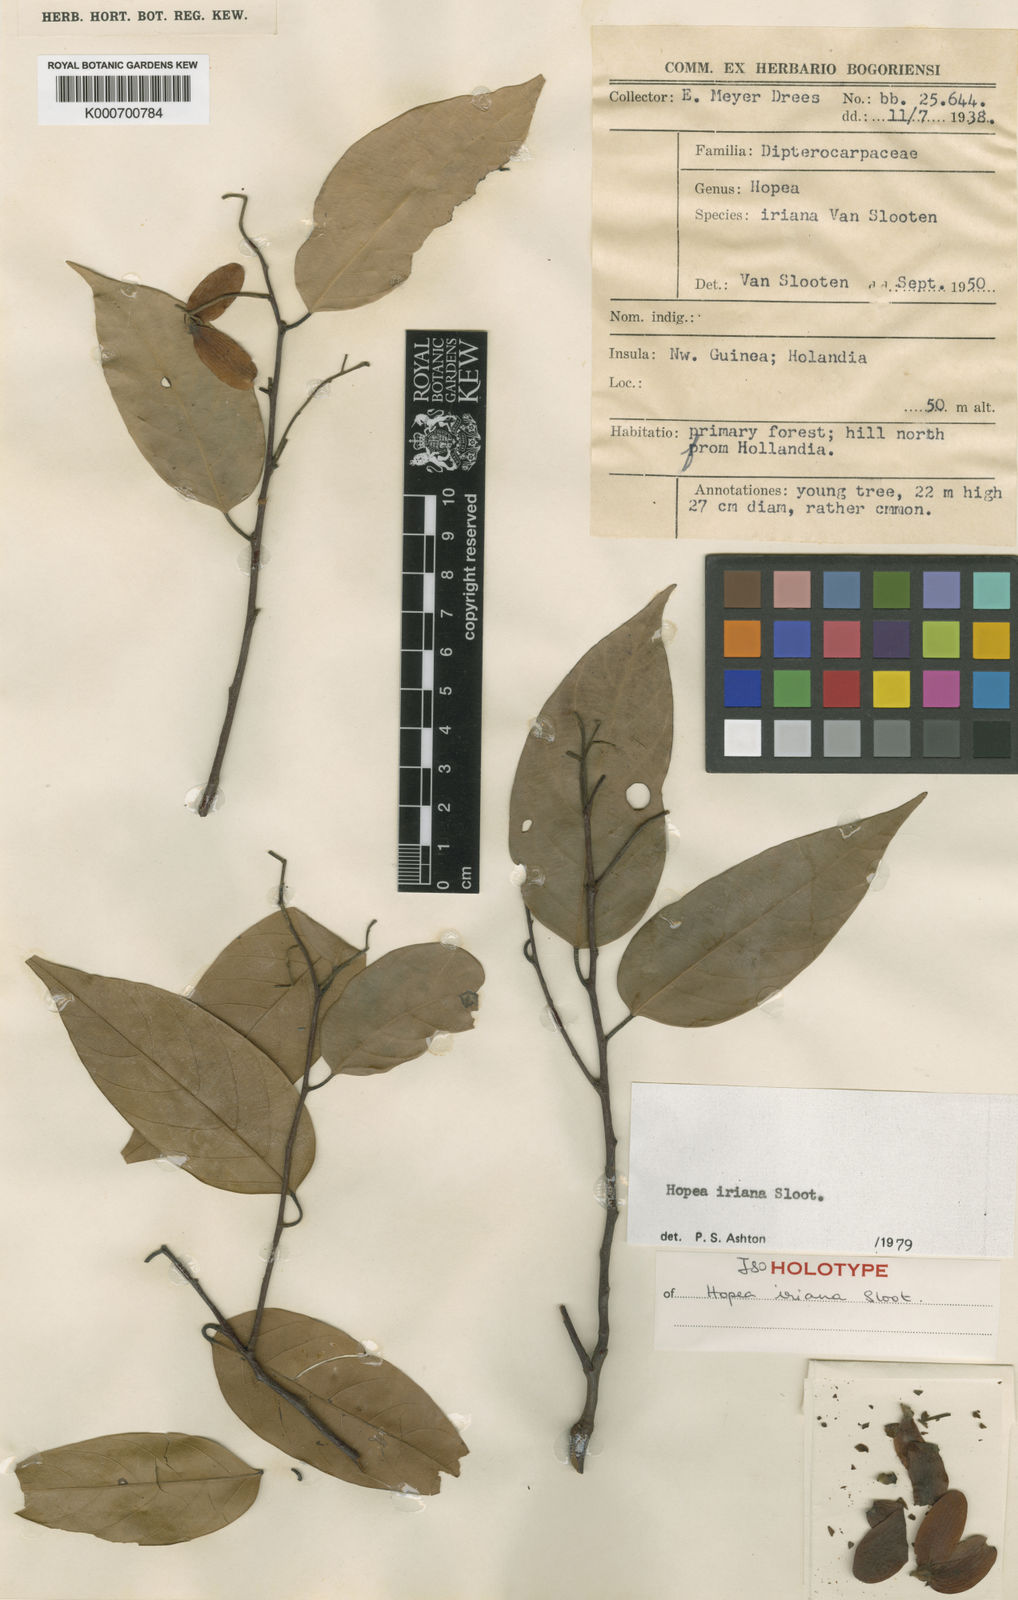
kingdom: Plantae
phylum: Tracheophyta
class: Magnoliopsida
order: Malvales
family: Dipterocarpaceae
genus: Hopea
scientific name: Hopea iriana
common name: Hopea heavy
